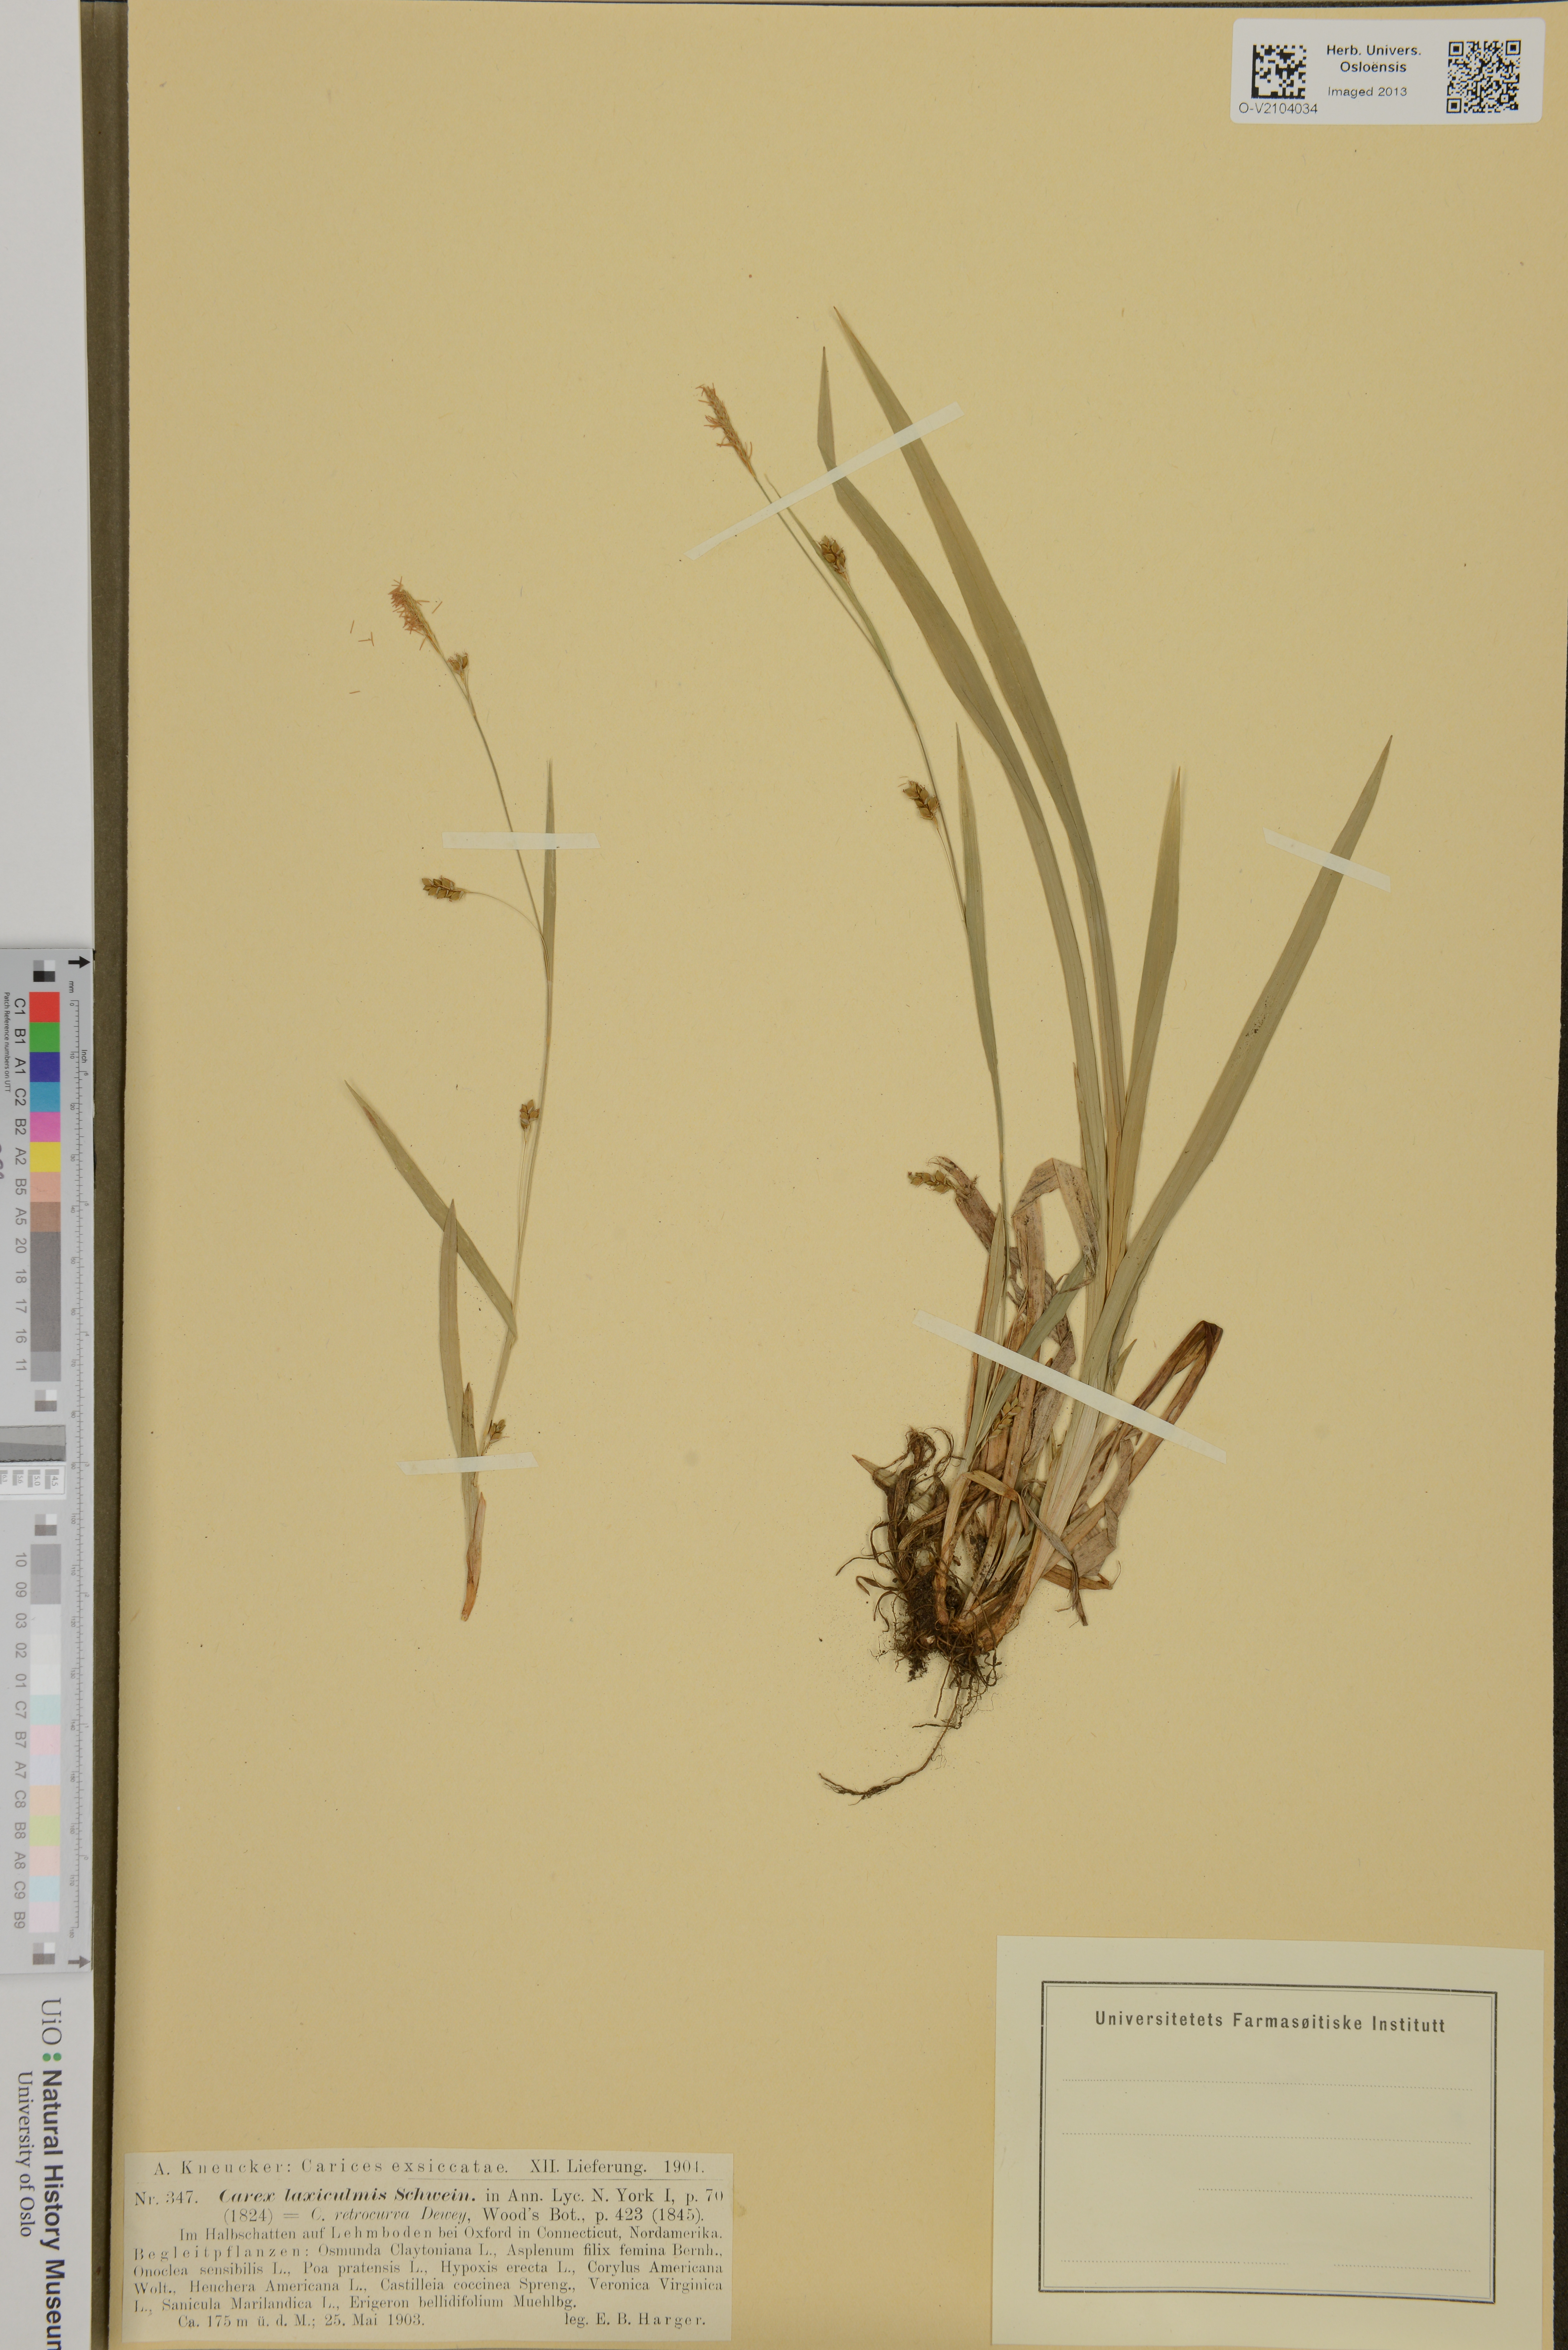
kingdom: Plantae
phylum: Tracheophyta
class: Liliopsida
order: Poales
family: Cyperaceae
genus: Carex
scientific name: Carex laxiculmis
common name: Spreading sedge
